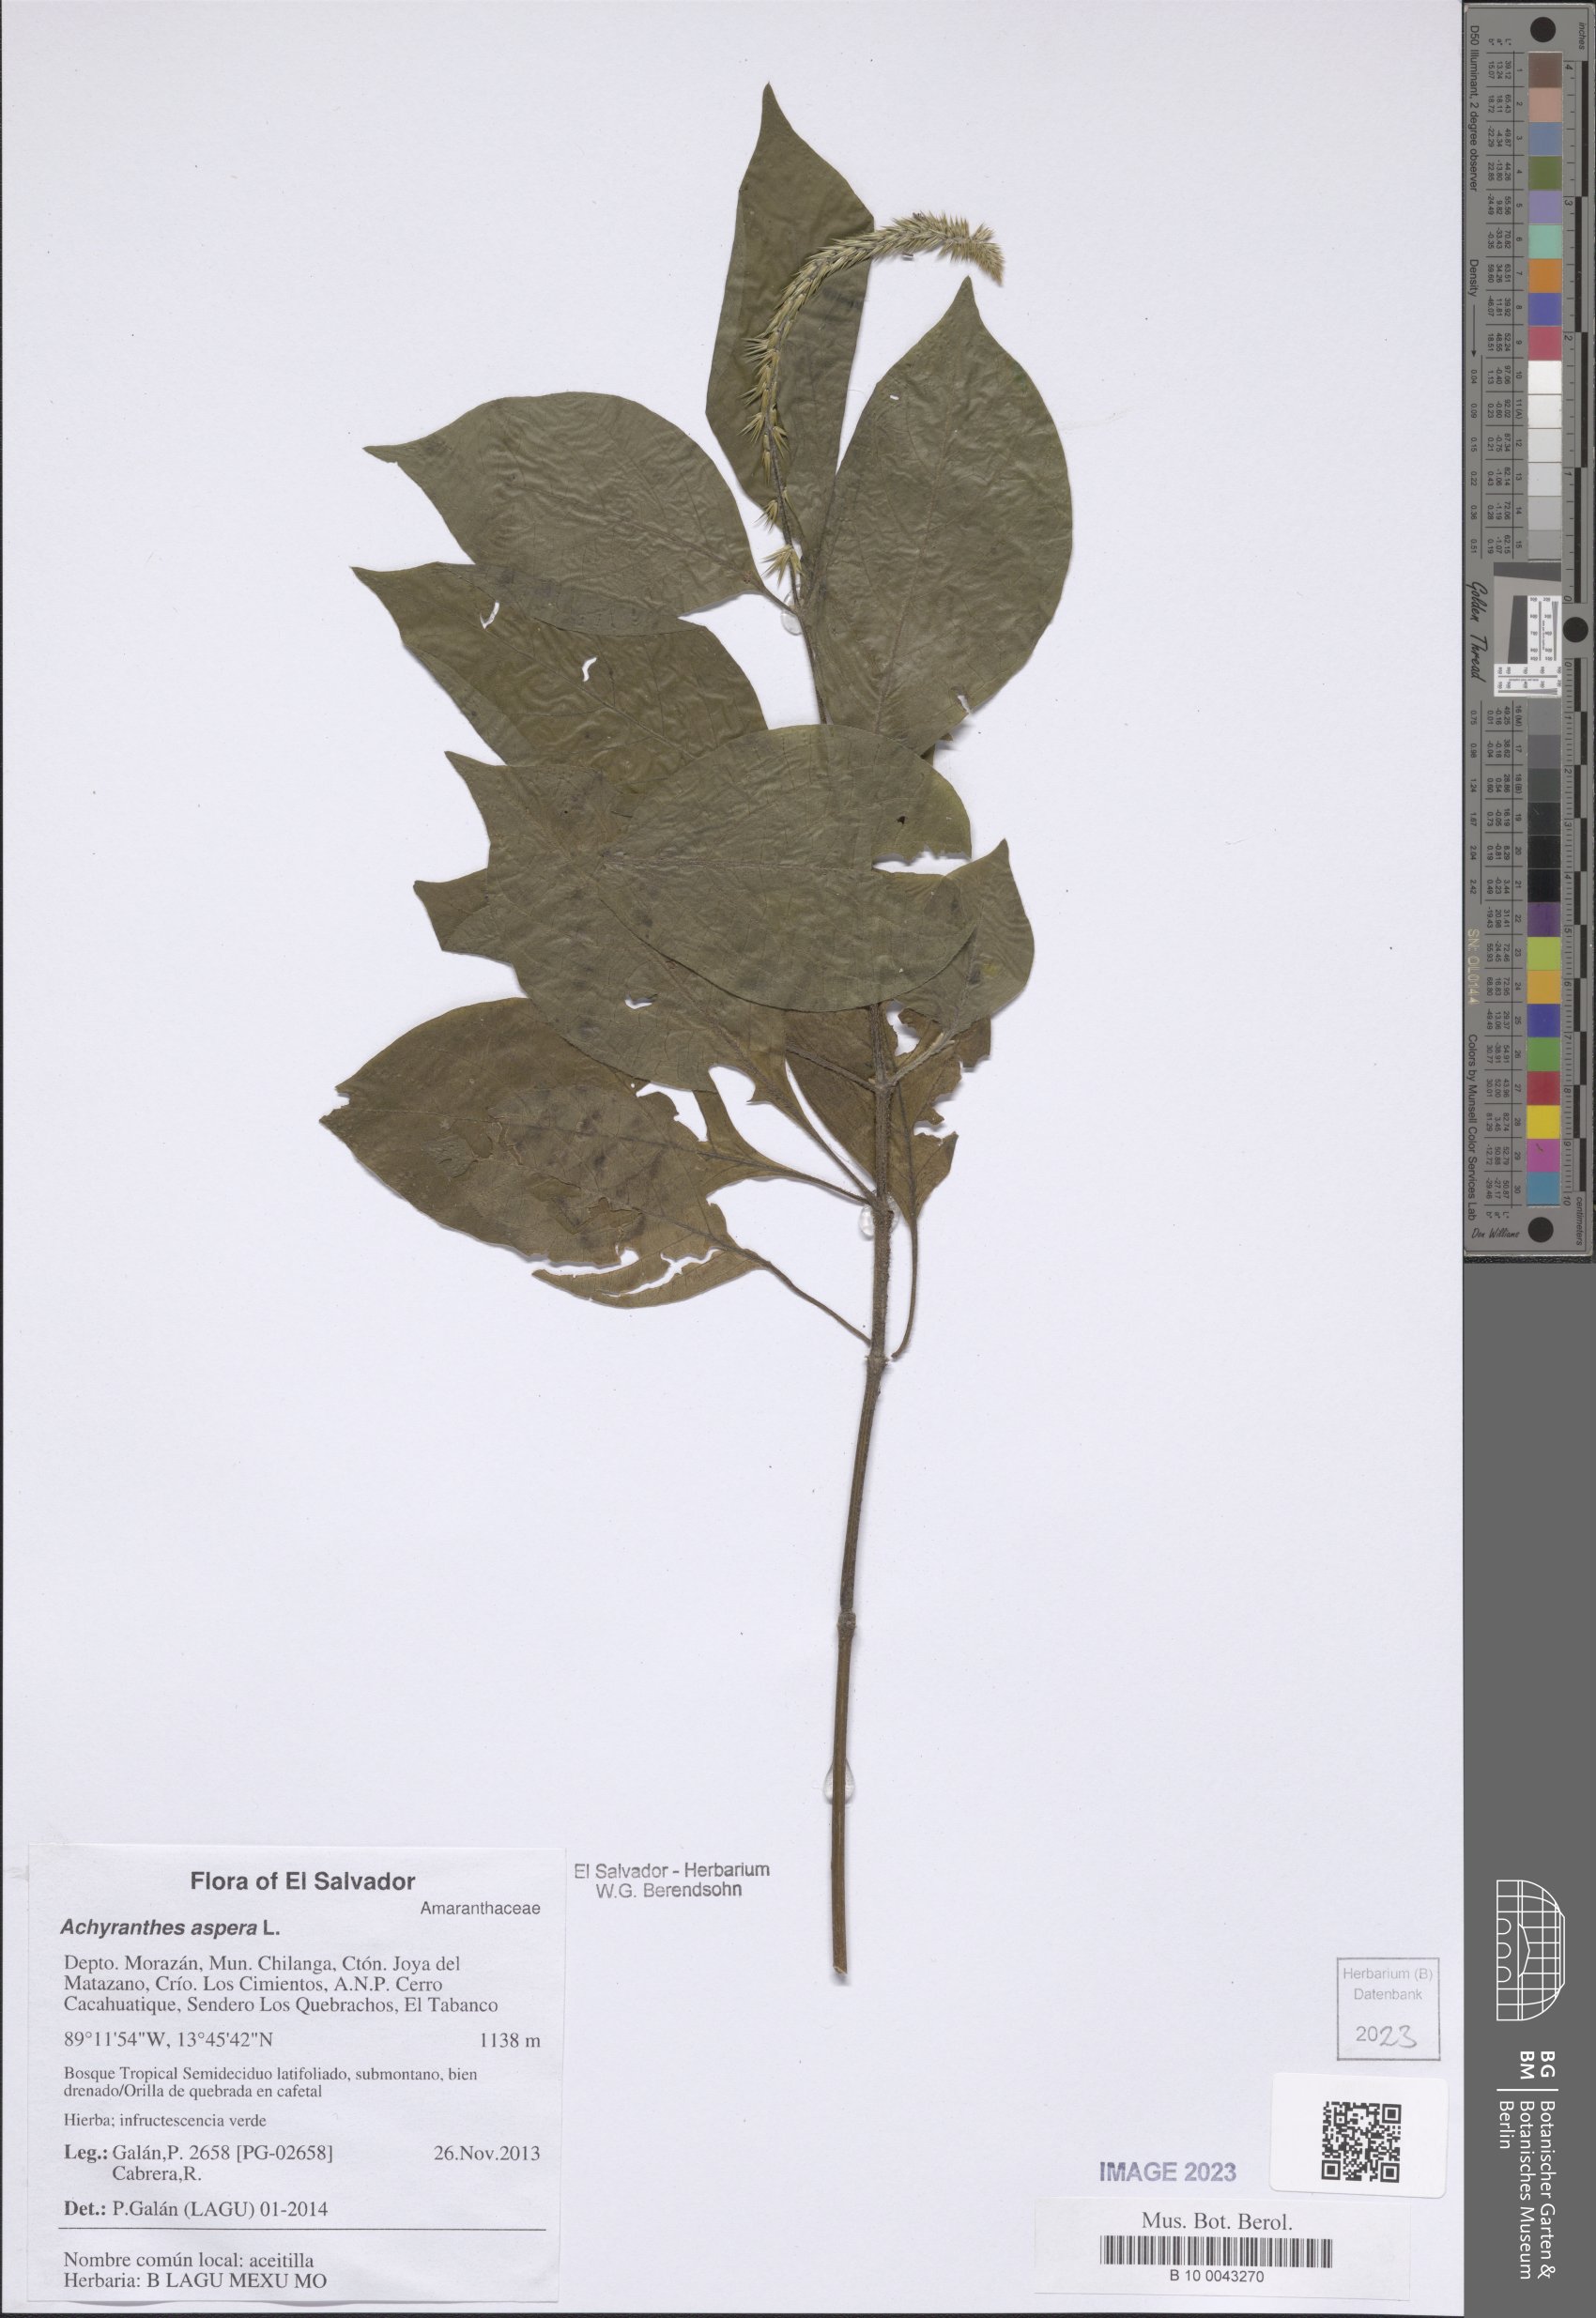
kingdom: Plantae
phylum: Tracheophyta
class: Magnoliopsida
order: Caryophyllales
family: Amaranthaceae
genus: Achyranthes
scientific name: Achyranthes aspera
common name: Devil's horsewhip
